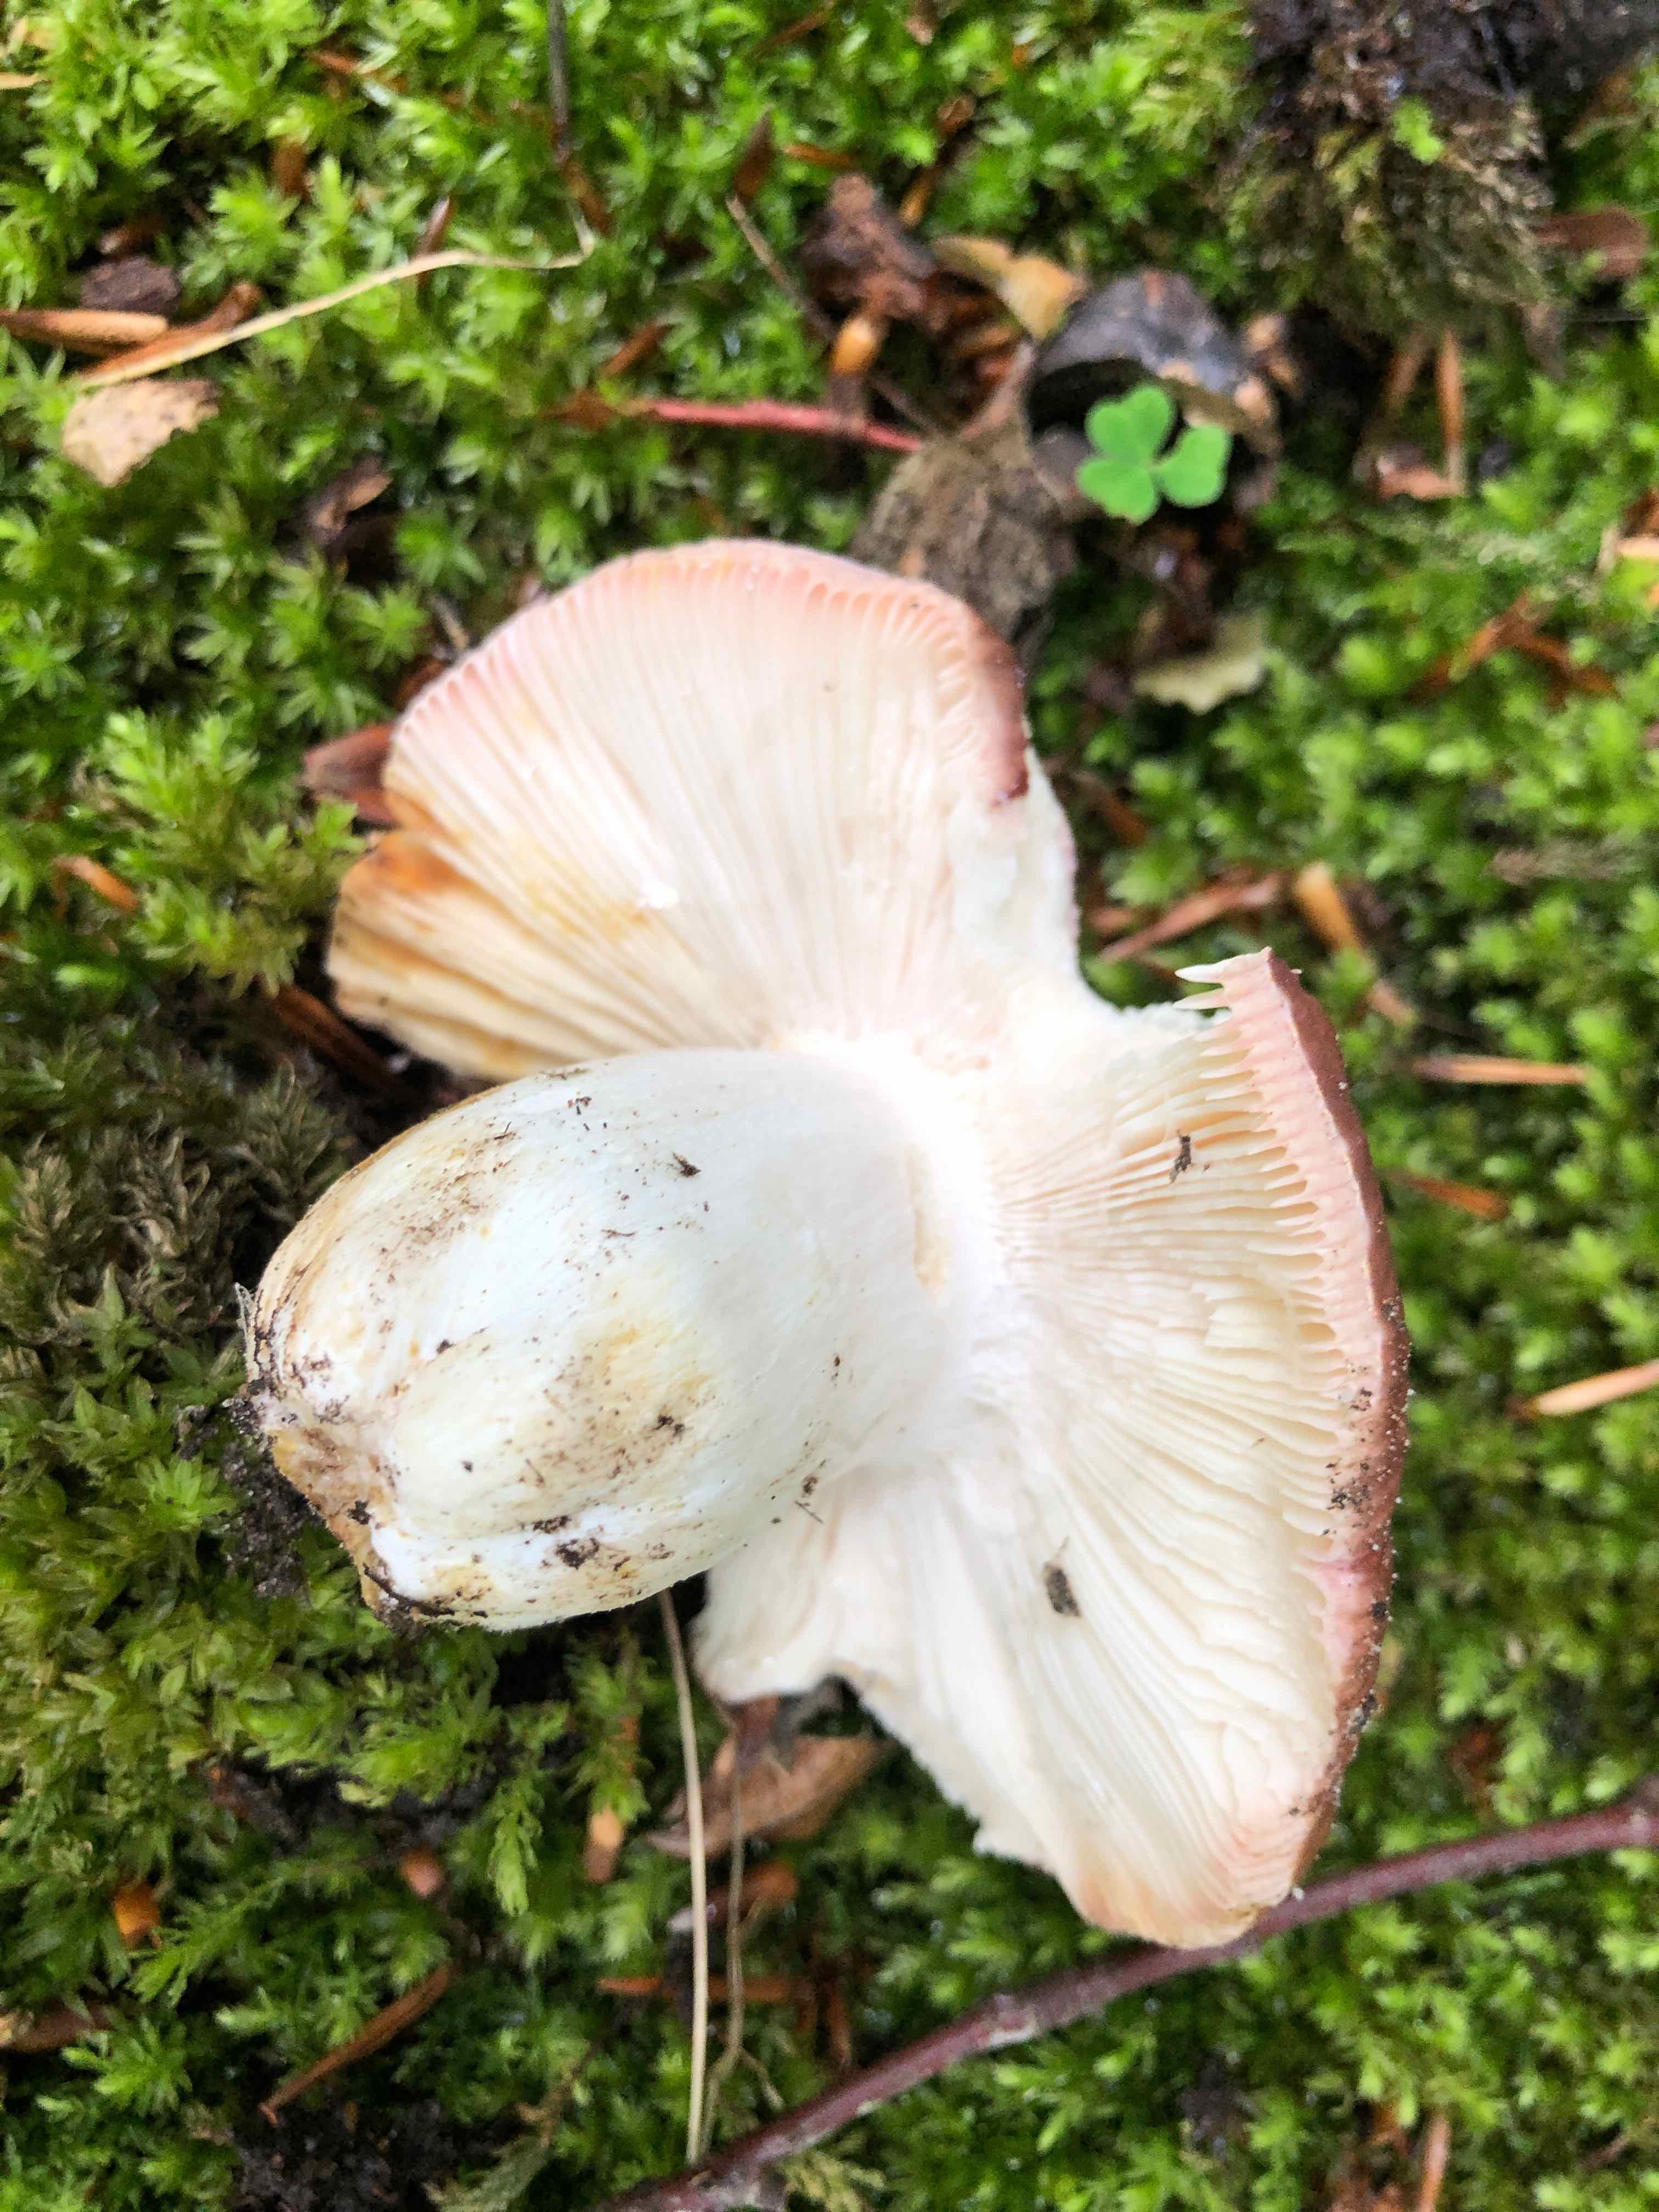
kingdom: Fungi
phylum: Basidiomycota
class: Agaricomycetes
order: Russulales
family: Russulaceae
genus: Russula
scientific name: Russula vesca
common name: spiselig skørhat
